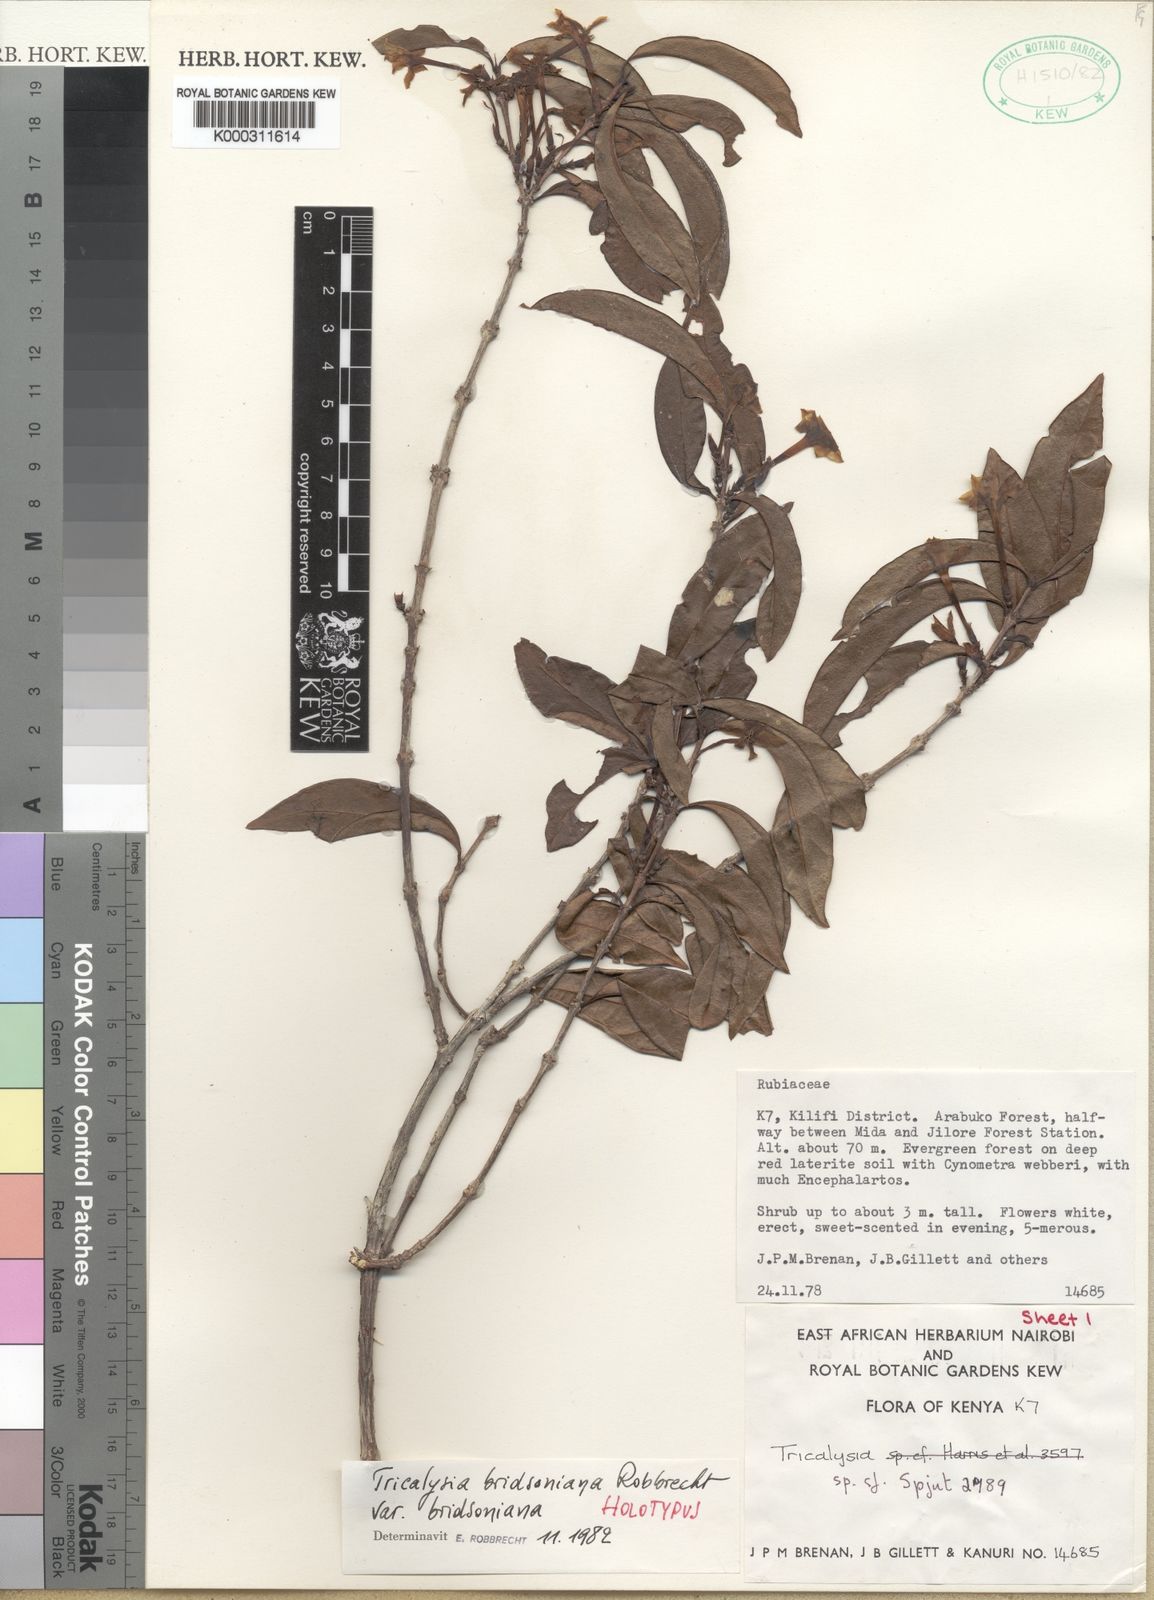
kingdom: Plantae
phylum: Tracheophyta
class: Magnoliopsida
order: Gentianales
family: Rubiaceae
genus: Tricalysia
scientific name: Tricalysia bridsoniana
